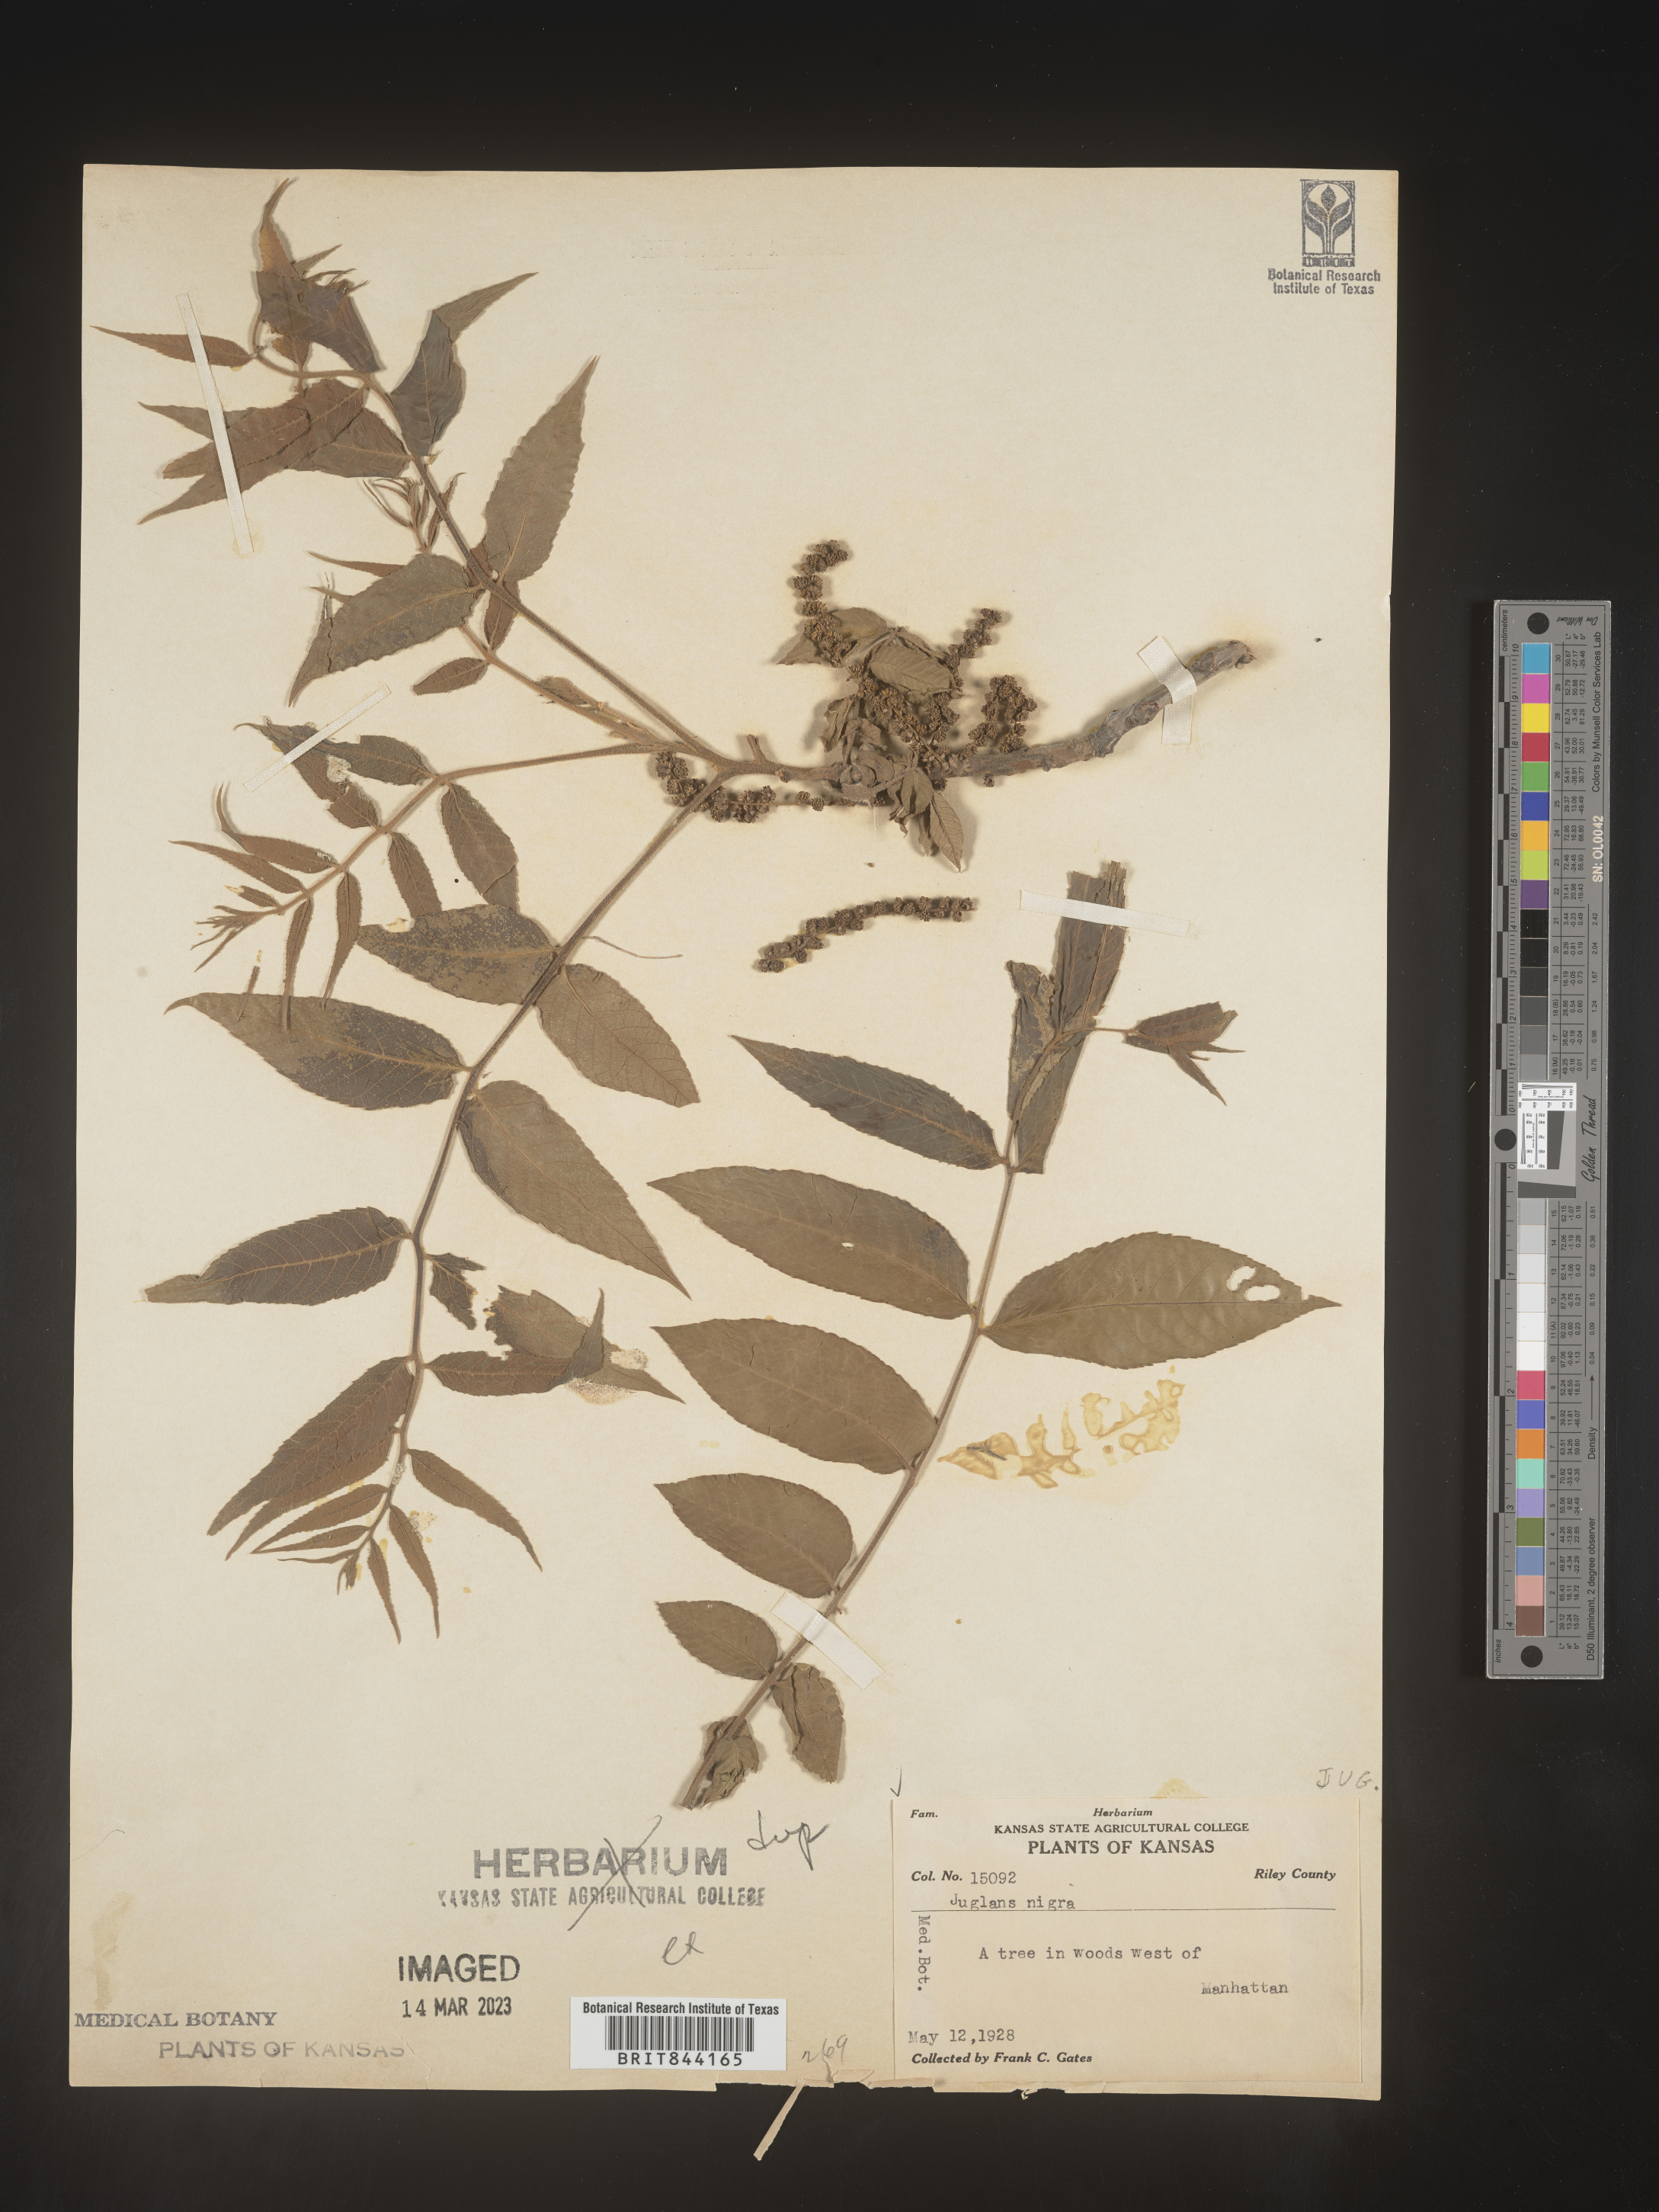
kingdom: Plantae
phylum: Tracheophyta
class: Magnoliopsida
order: Fagales
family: Juglandaceae
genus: Juglans
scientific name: Juglans nigra
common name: Black walnut
